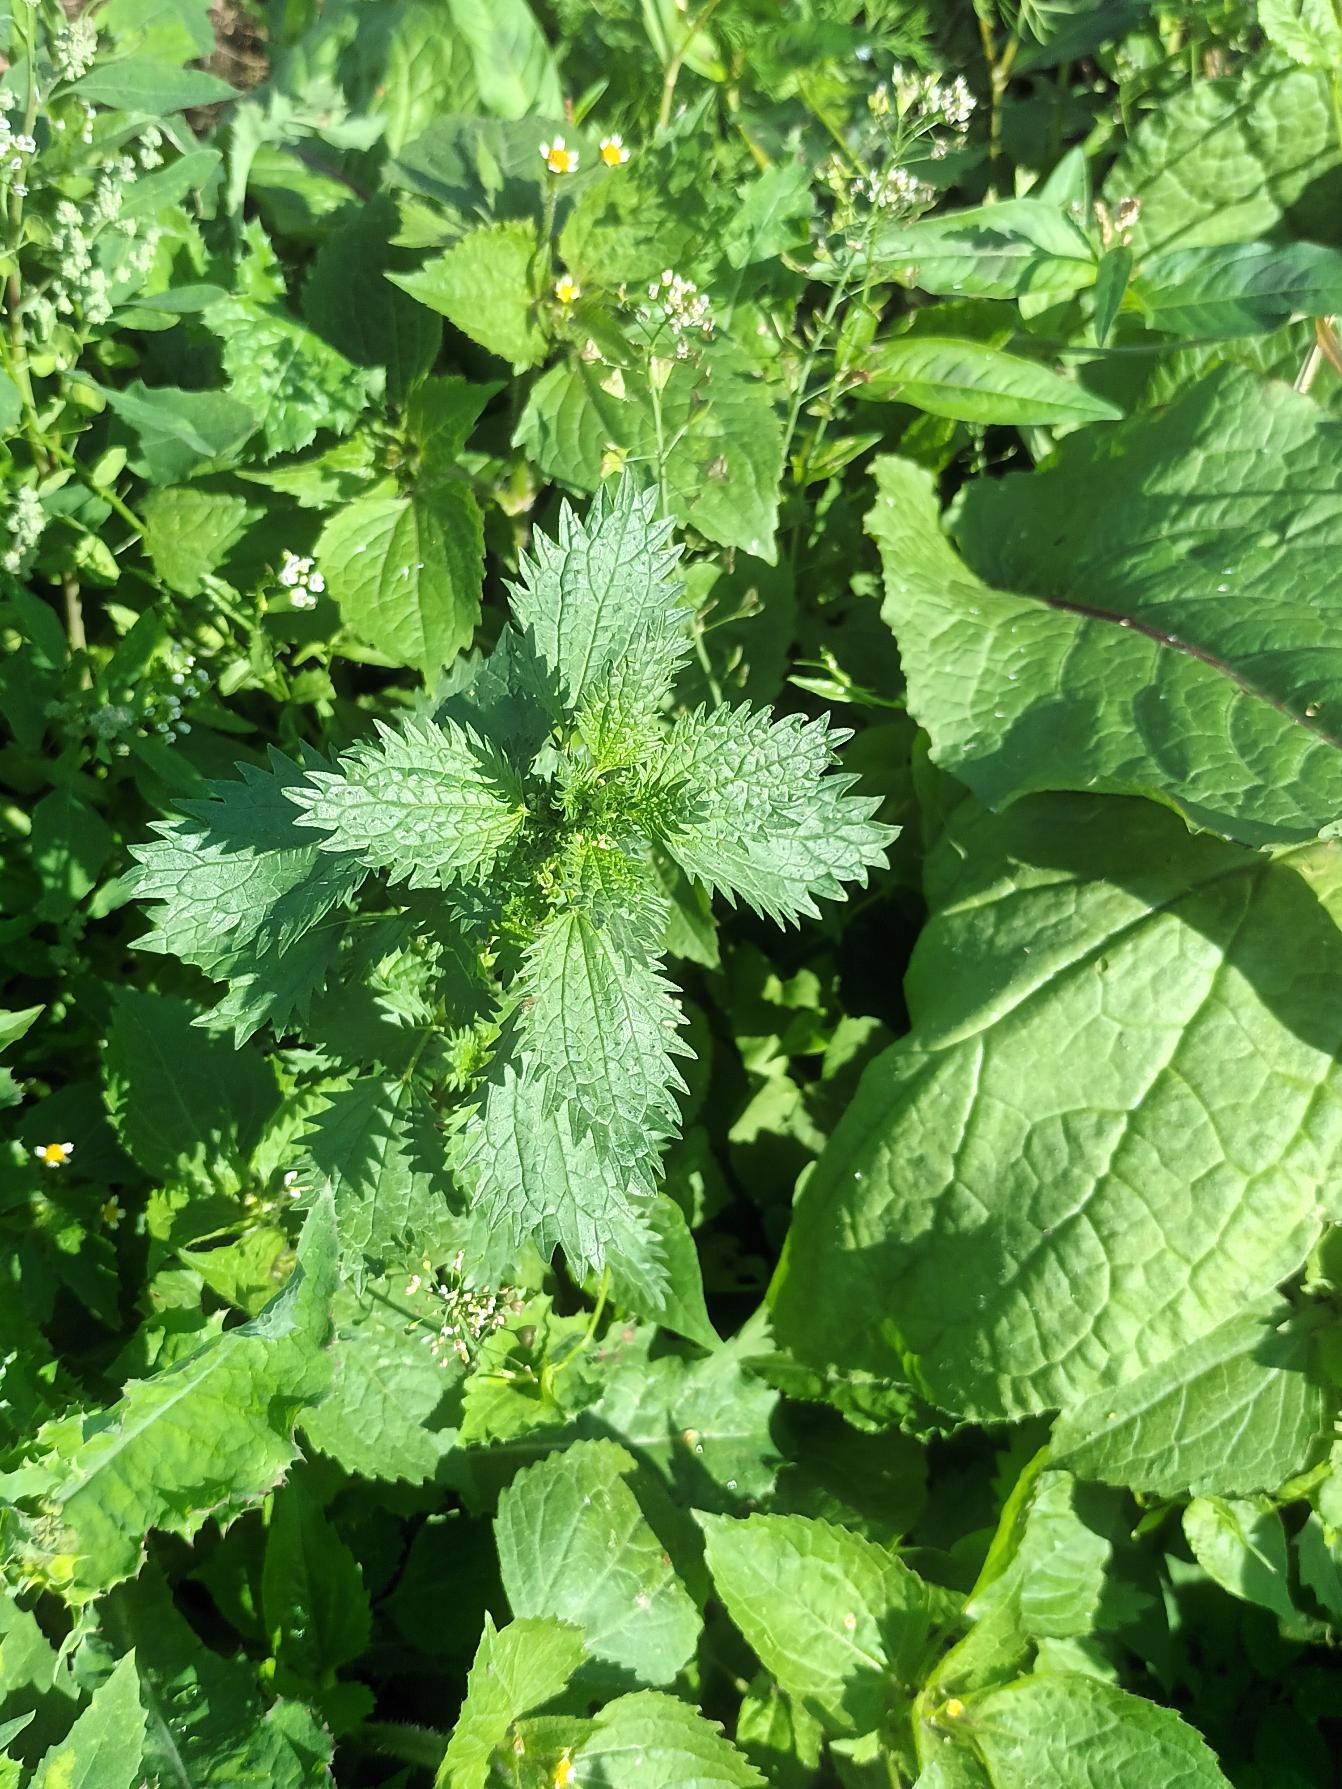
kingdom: Plantae
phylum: Tracheophyta
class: Magnoliopsida
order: Rosales
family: Urticaceae
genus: Urtica
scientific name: Urtica urens
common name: Liden nælde
